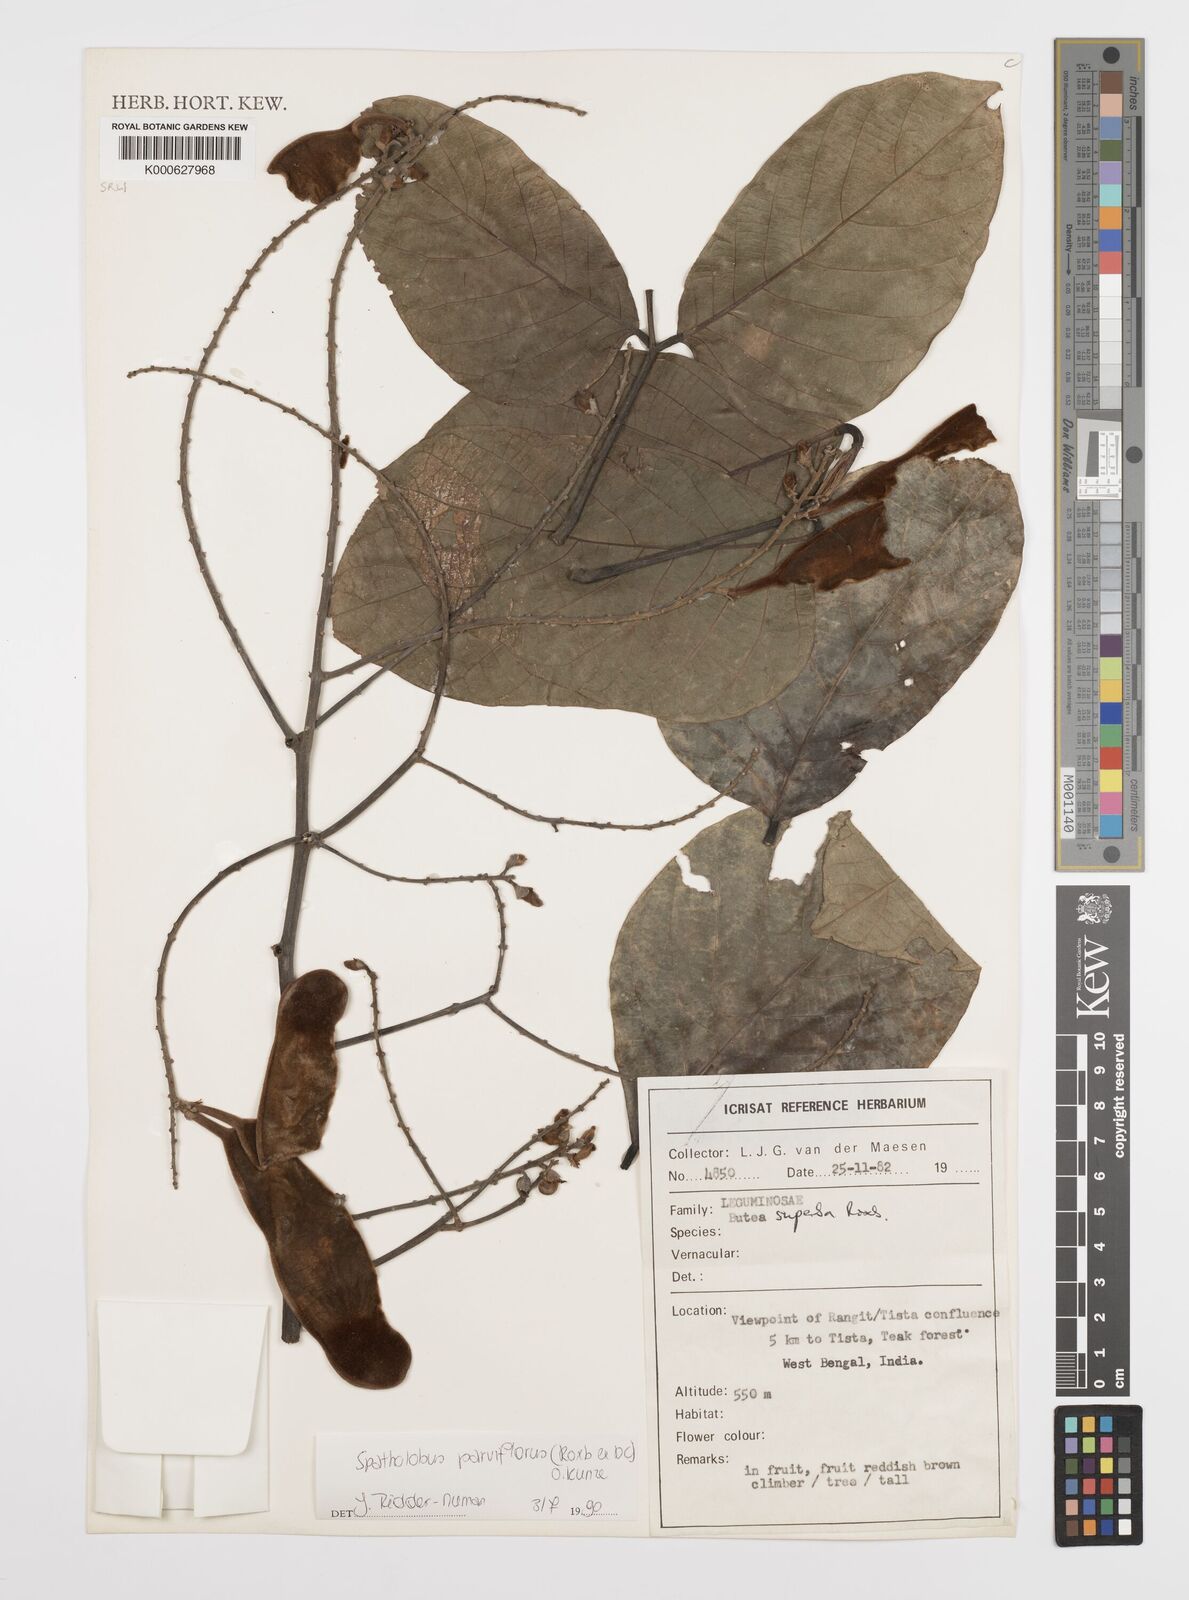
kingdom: Plantae
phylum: Tracheophyta
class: Magnoliopsida
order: Fabales
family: Fabaceae
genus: Spatholobus
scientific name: Spatholobus parviflorus
